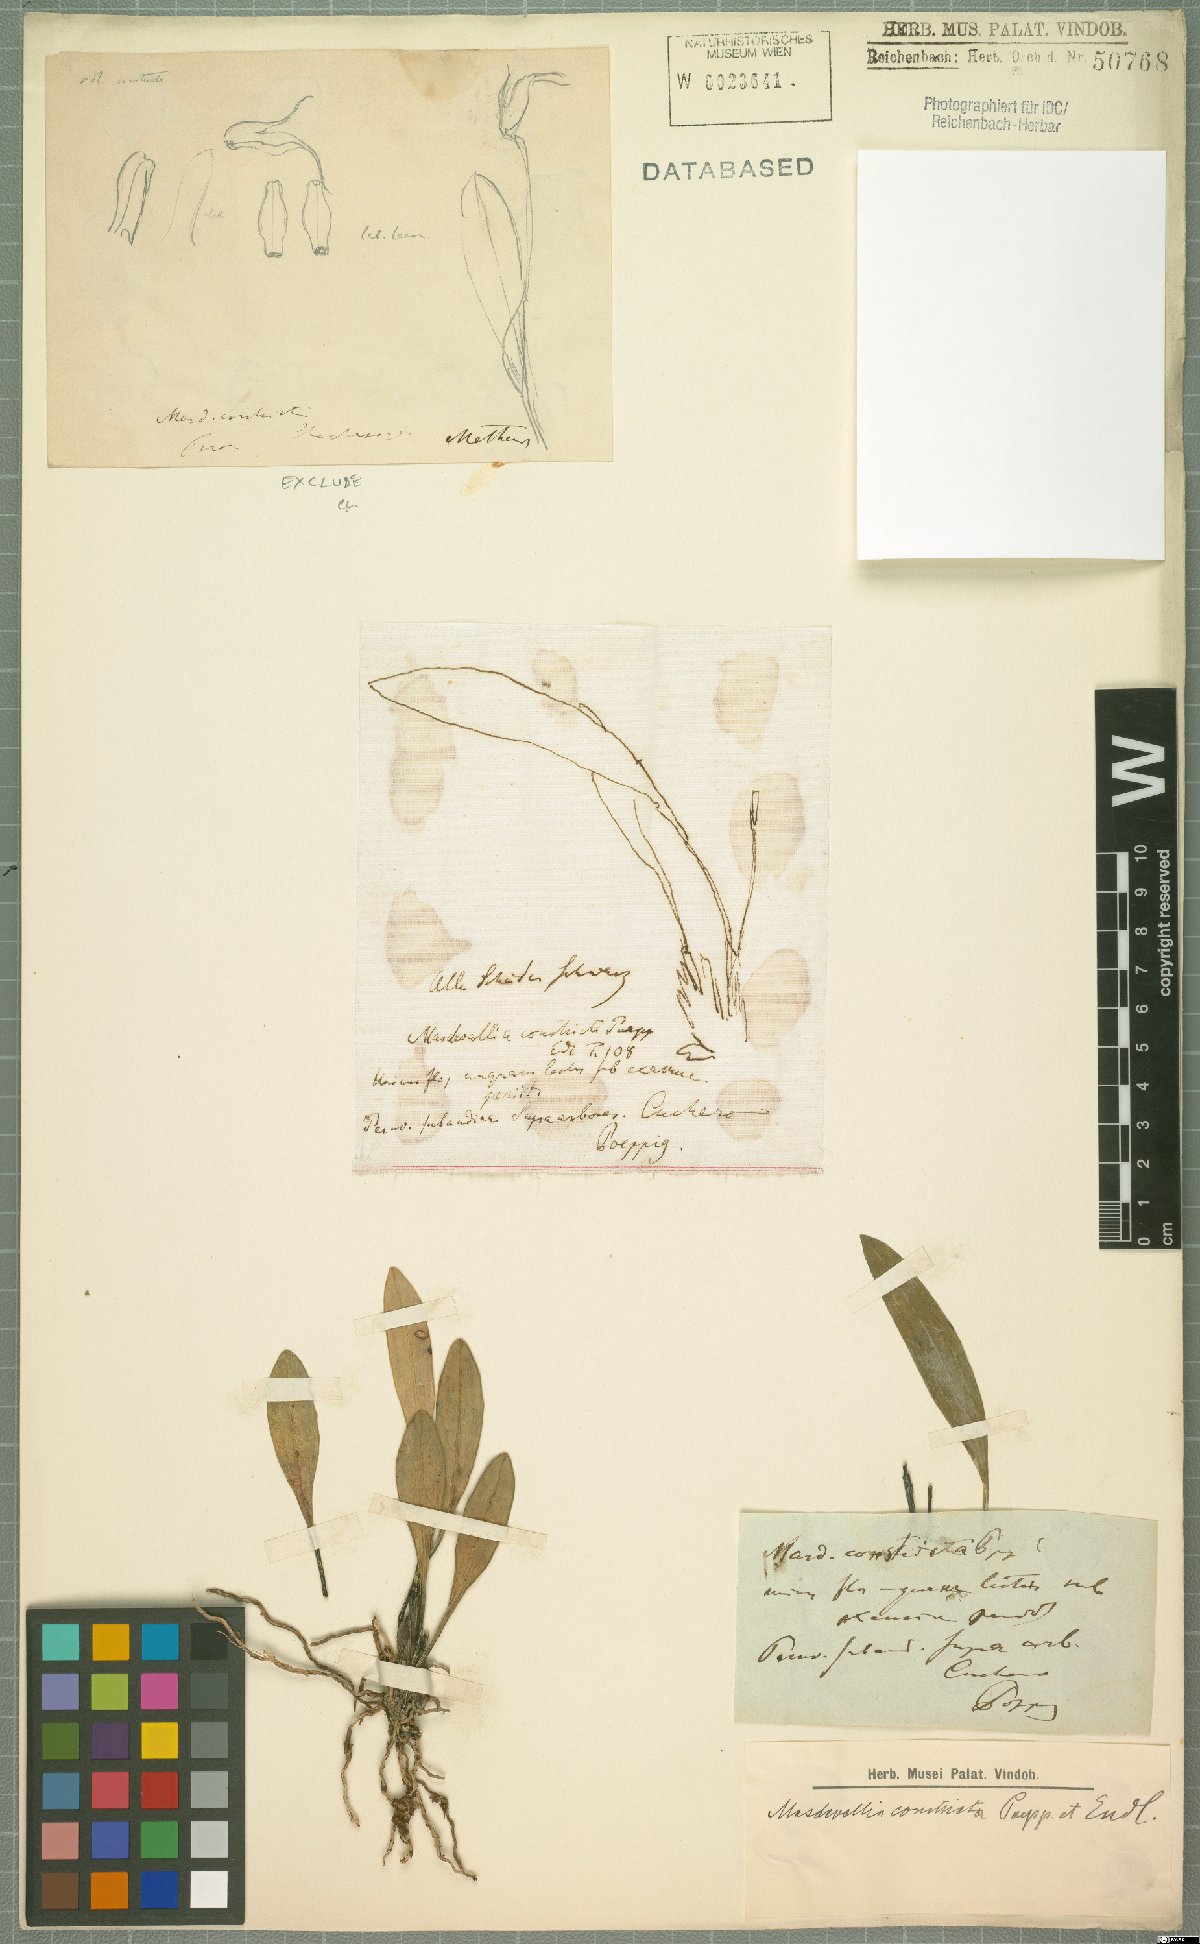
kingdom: Plantae
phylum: Tracheophyta
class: Liliopsida
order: Asparagales
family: Orchidaceae
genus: Masdevallia
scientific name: Masdevallia constricta
